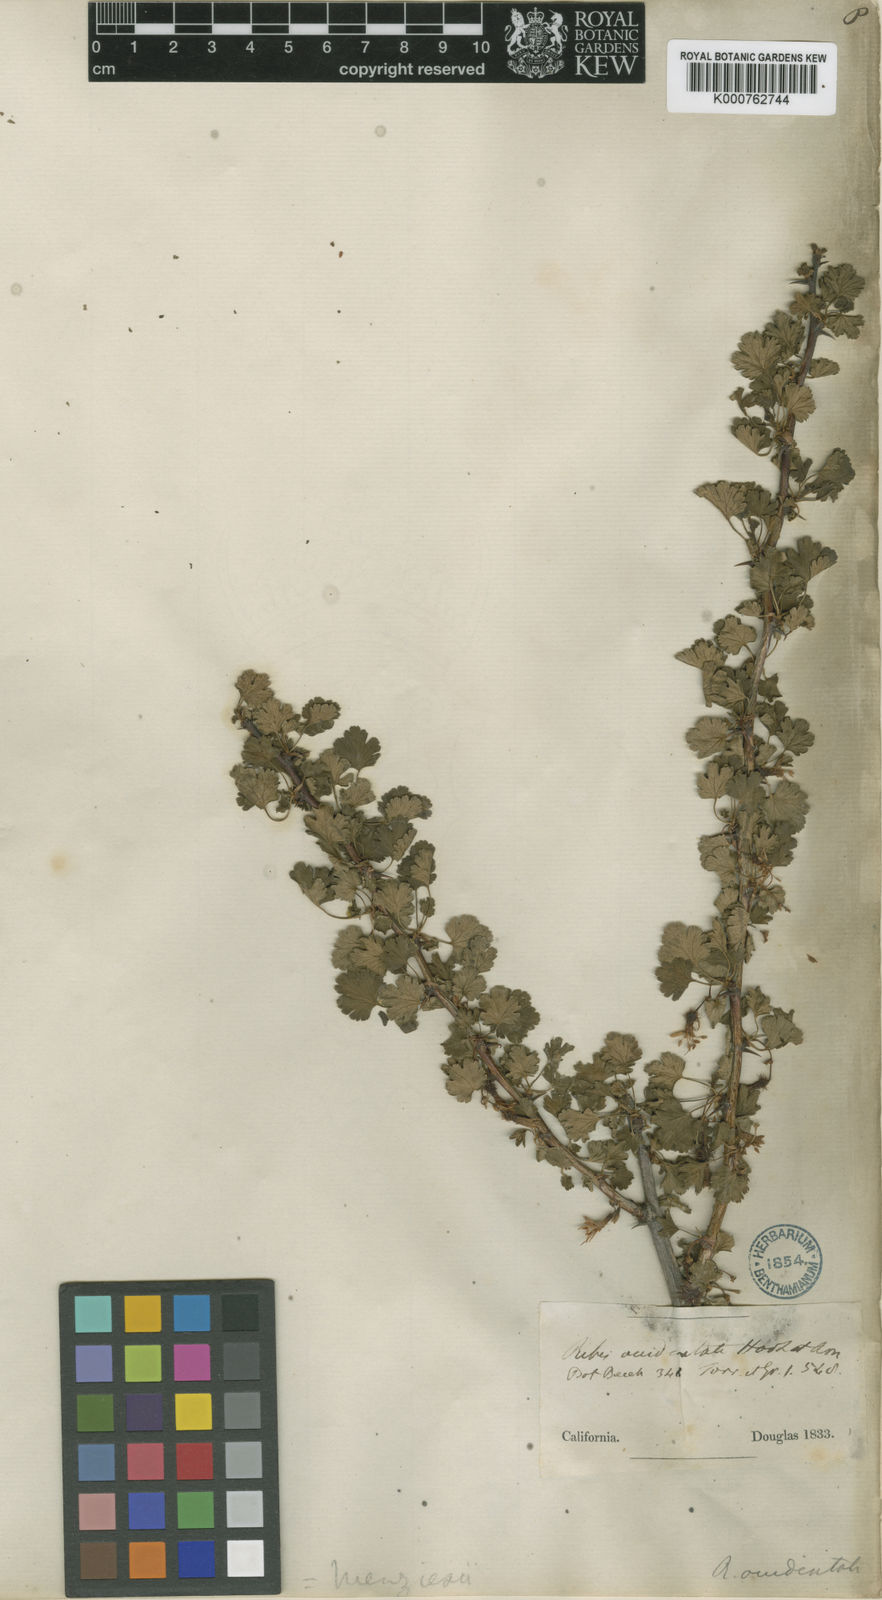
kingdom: Plantae
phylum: Tracheophyta
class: Magnoliopsida
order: Saxifragales
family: Grossulariaceae
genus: Ribes
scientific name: Ribes californicum
